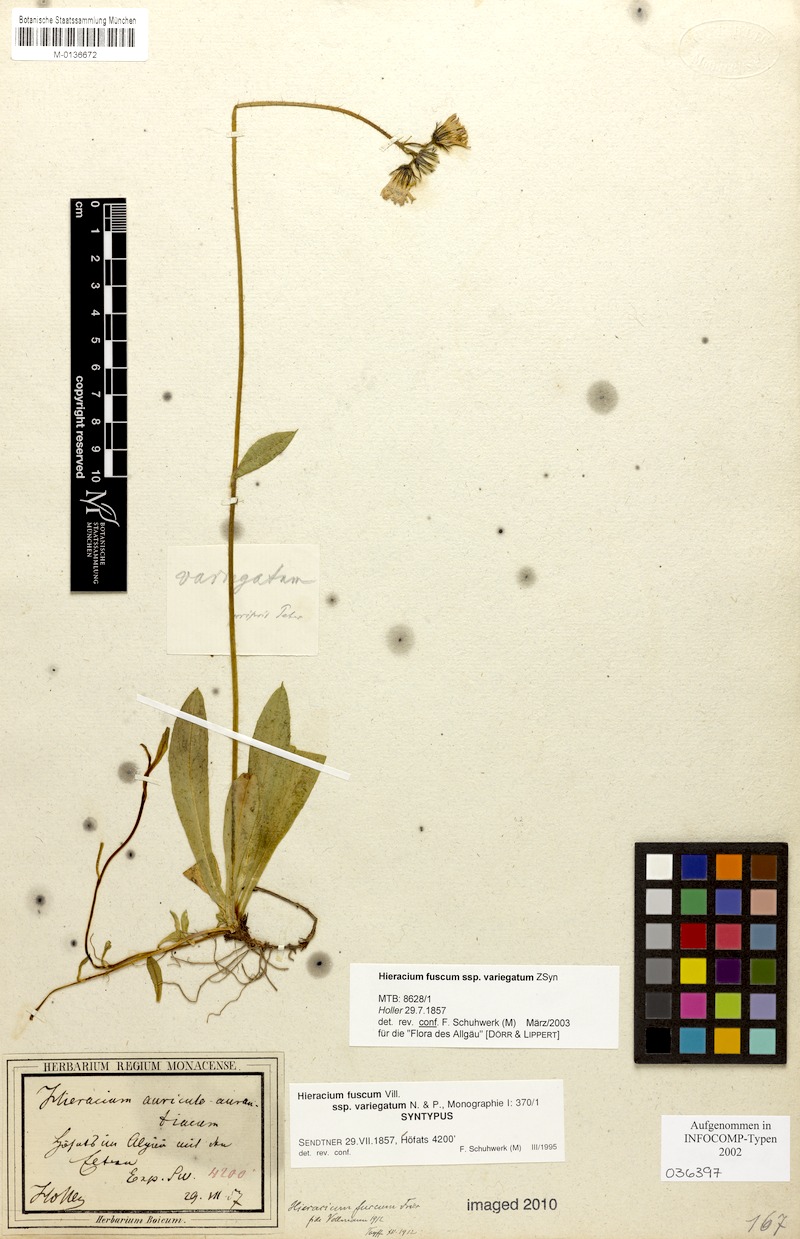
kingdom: Plantae
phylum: Tracheophyta
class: Magnoliopsida
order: Asterales
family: Asteraceae
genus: Pilosella
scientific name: Pilosella fusca
